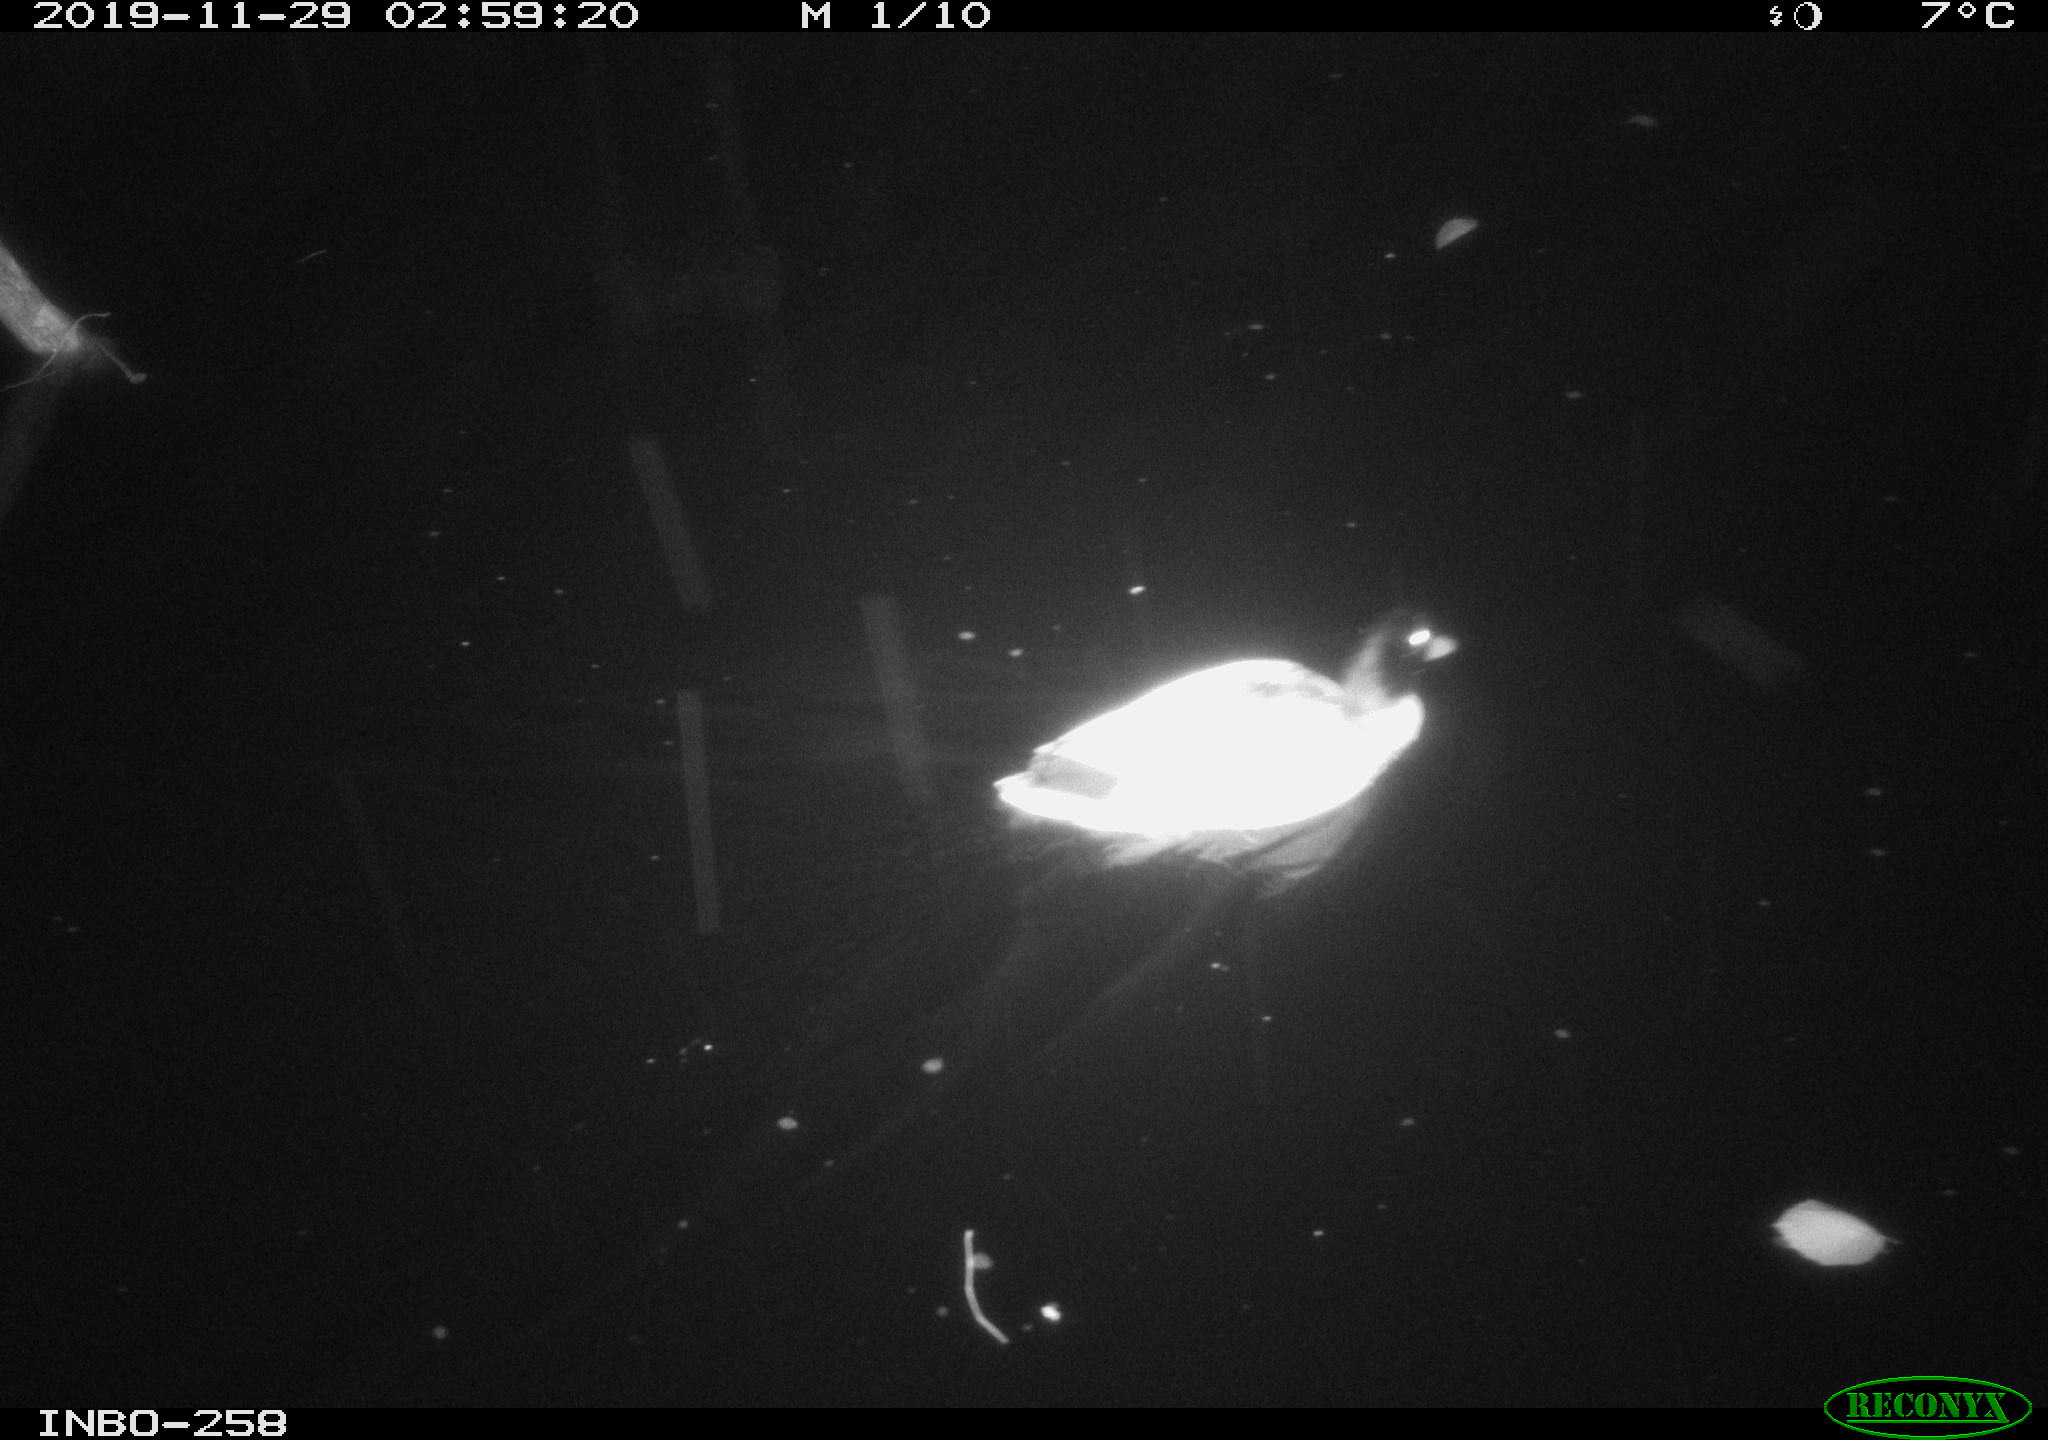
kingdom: Animalia
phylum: Chordata
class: Aves
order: Anseriformes
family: Anatidae
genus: Anas
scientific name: Anas platyrhynchos
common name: Mallard
